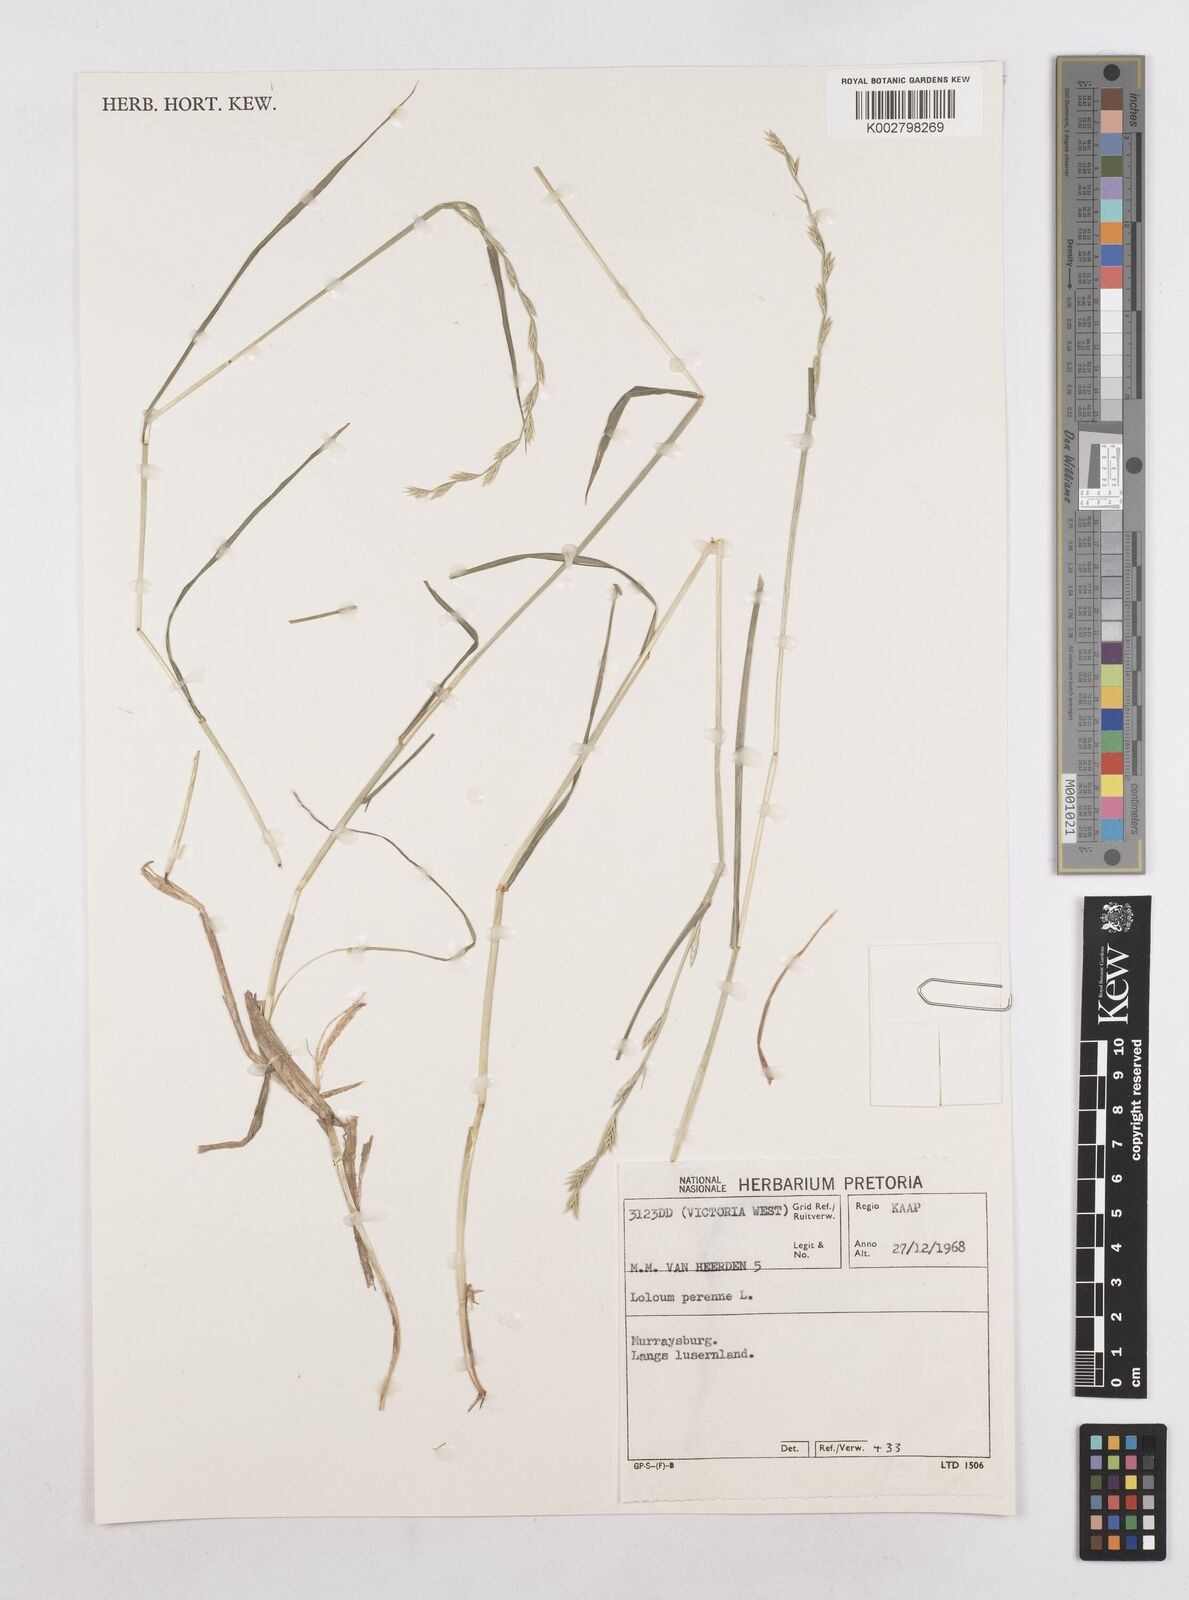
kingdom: Plantae
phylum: Tracheophyta
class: Liliopsida
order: Poales
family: Poaceae
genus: Lolium
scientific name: Lolium perenne
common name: Perennial ryegrass
